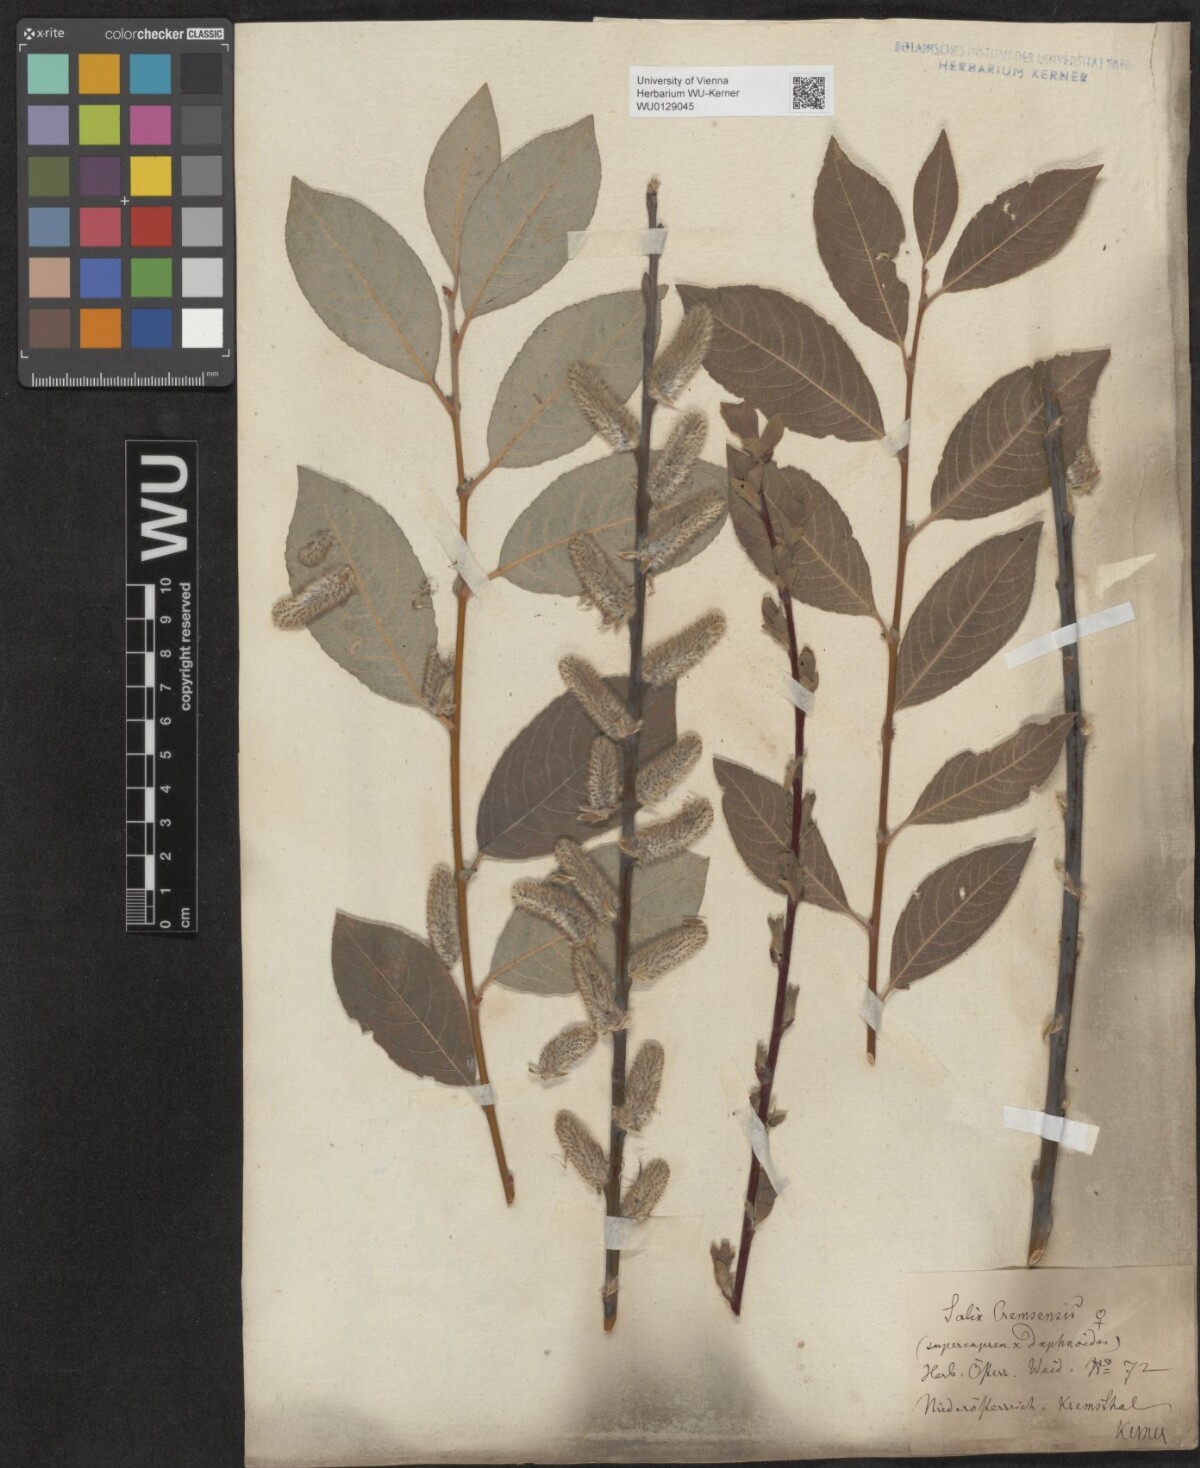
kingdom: Plantae
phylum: Tracheophyta
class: Magnoliopsida
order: Malpighiales
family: Salicaceae
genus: Salix
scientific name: Salix erdingeri
